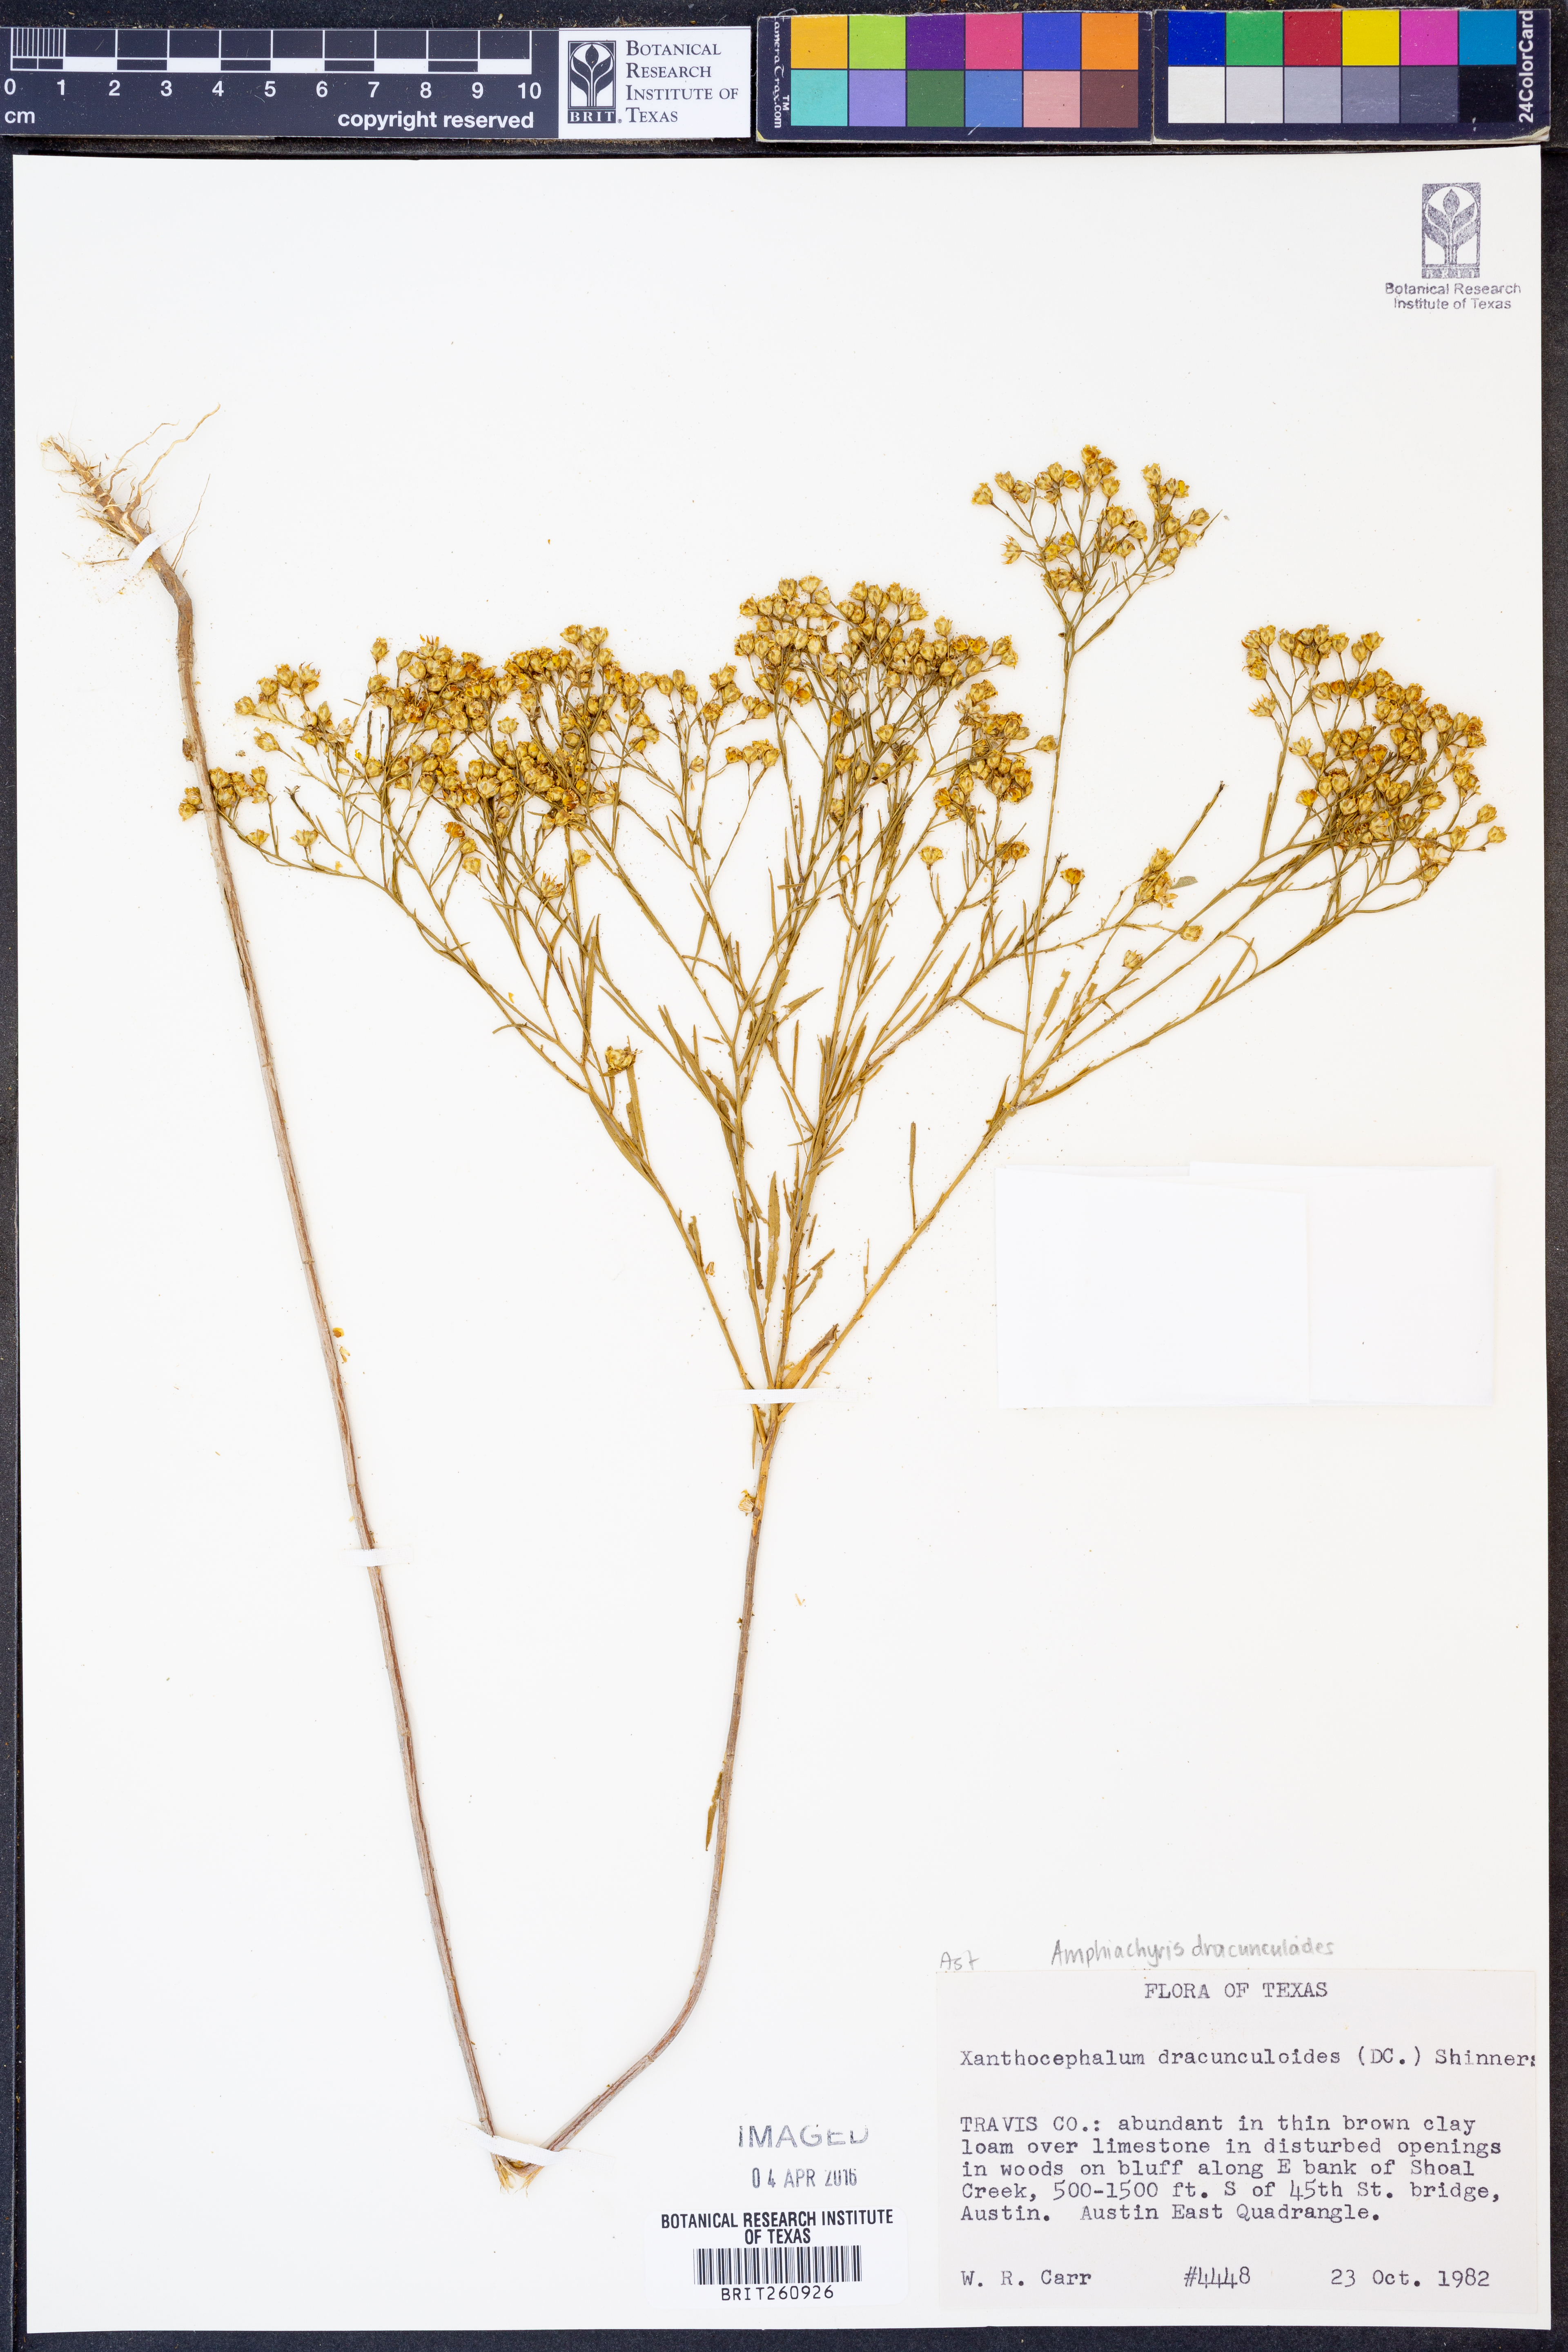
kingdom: Plantae
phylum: Tracheophyta
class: Magnoliopsida
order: Asterales
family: Asteraceae
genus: Amphiachyris
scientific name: Amphiachyris dracunculoides
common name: Broomweed
